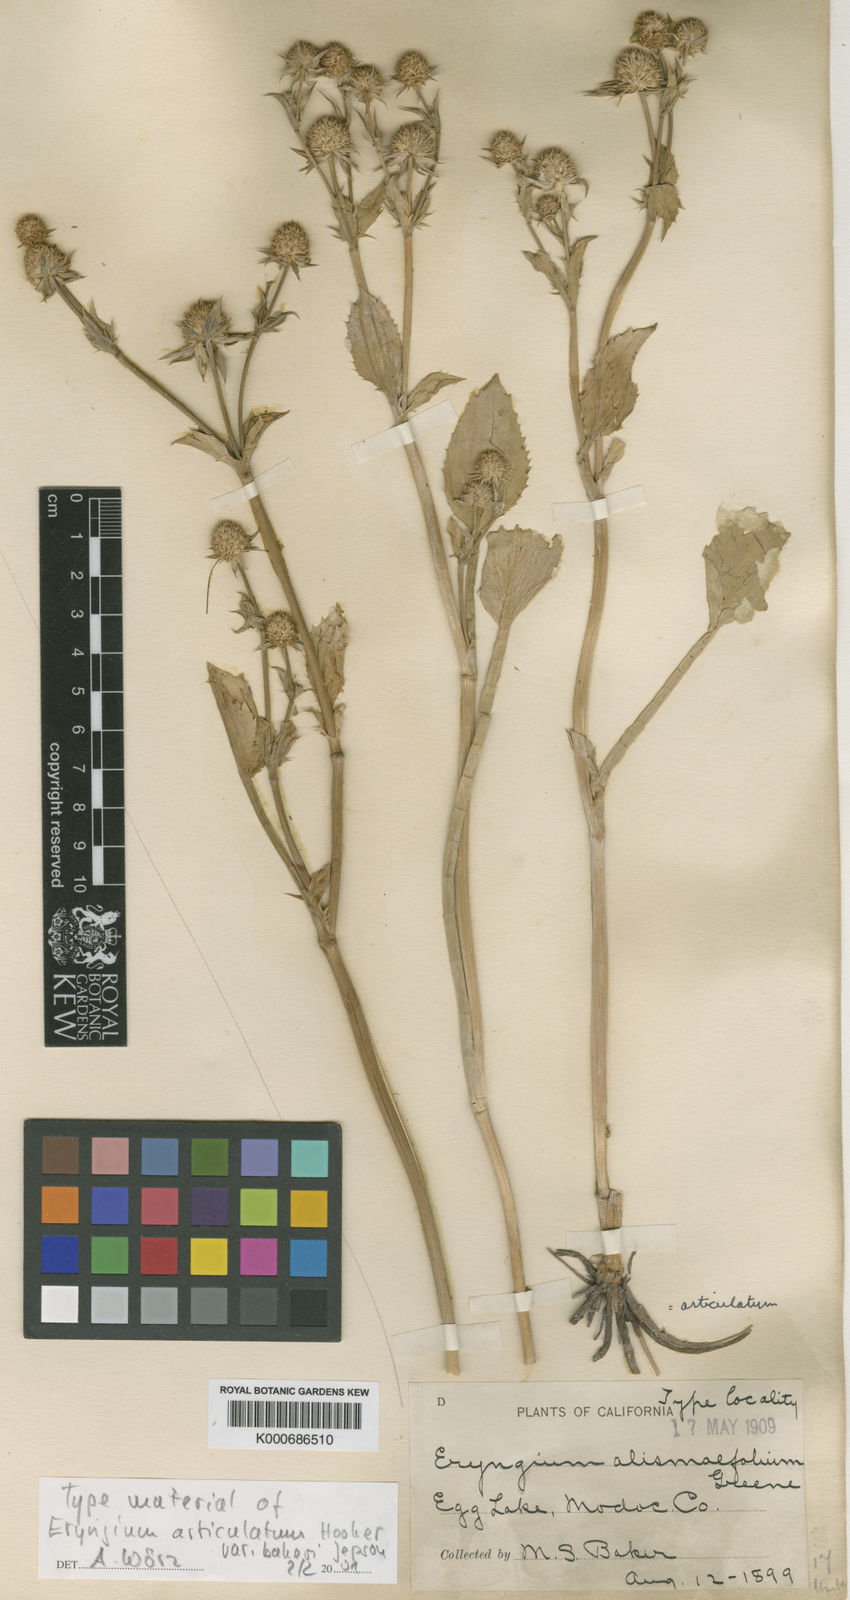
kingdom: Plantae
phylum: Tracheophyta
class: Magnoliopsida
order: Apiales
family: Apiaceae
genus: Eryngium
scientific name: Eryngium articulatum
